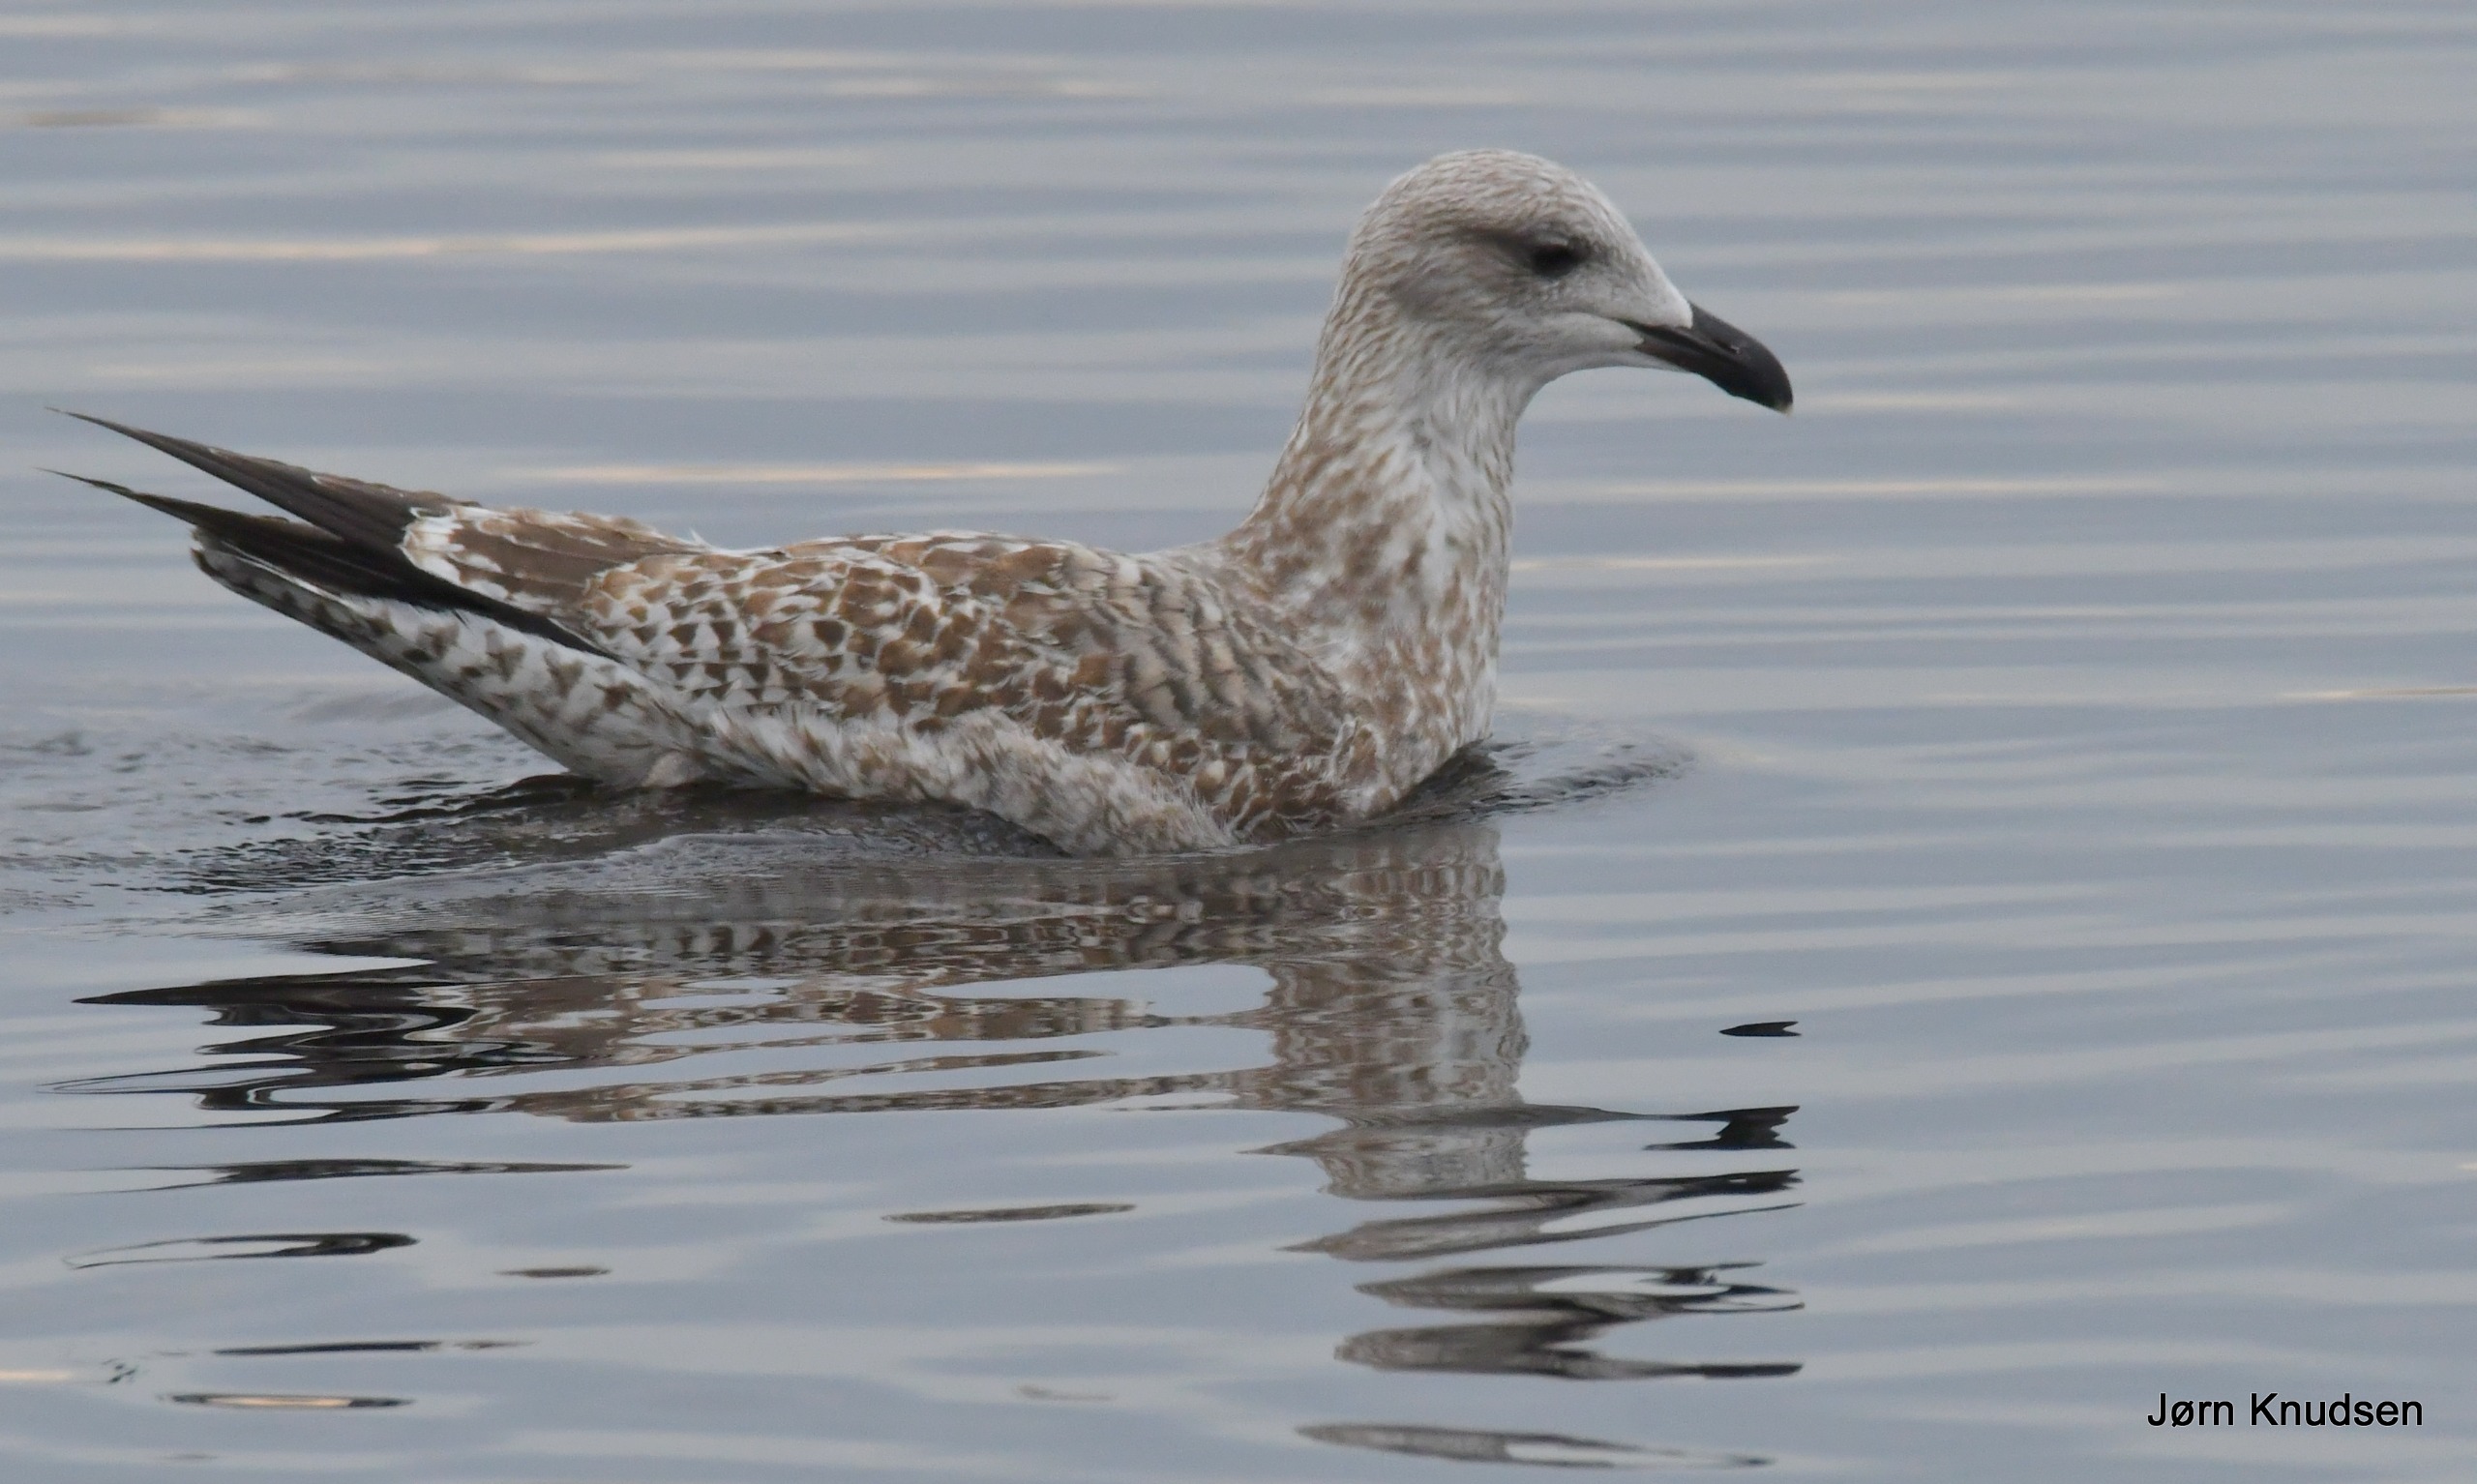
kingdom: Animalia
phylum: Chordata
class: Aves
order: Charadriiformes
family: Laridae
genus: Larus
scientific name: Larus argentatus
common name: Sølvmåge
